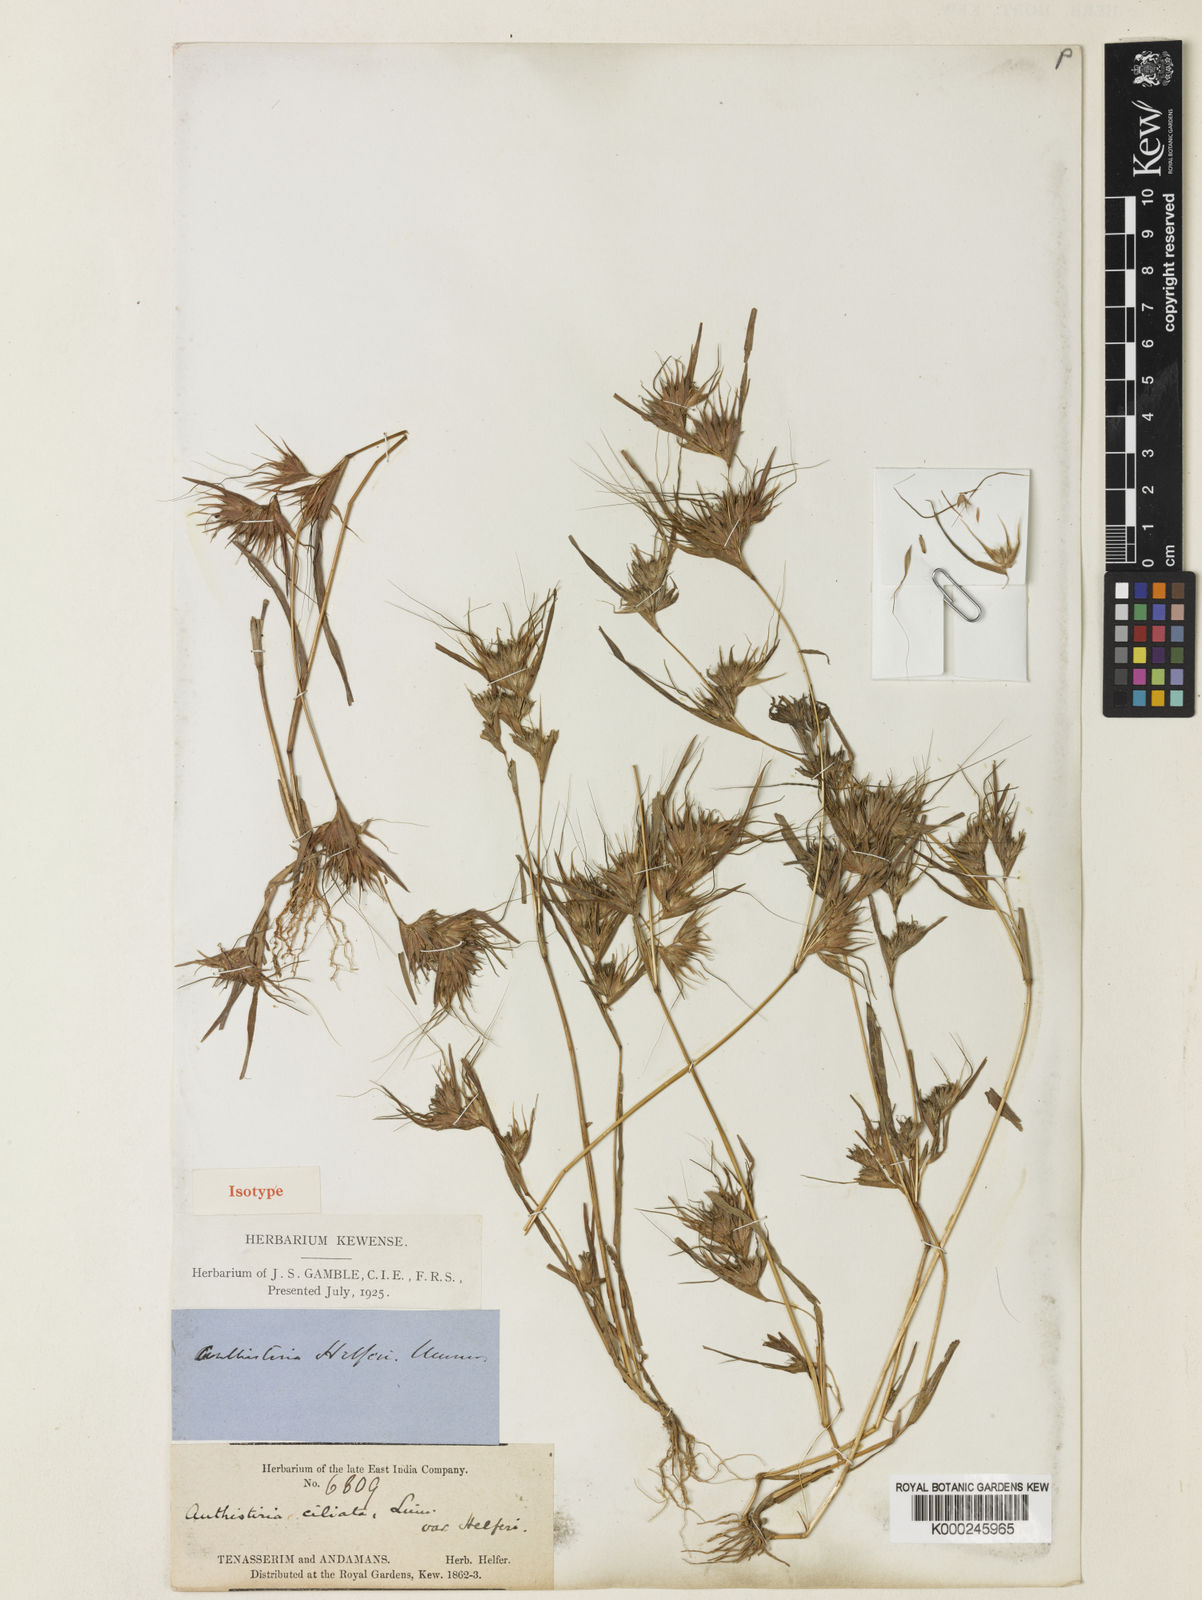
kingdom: Plantae
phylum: Tracheophyta
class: Liliopsida
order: Poales
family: Poaceae
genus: Themeda
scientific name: Themeda helferi
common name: Kangaroo grass
